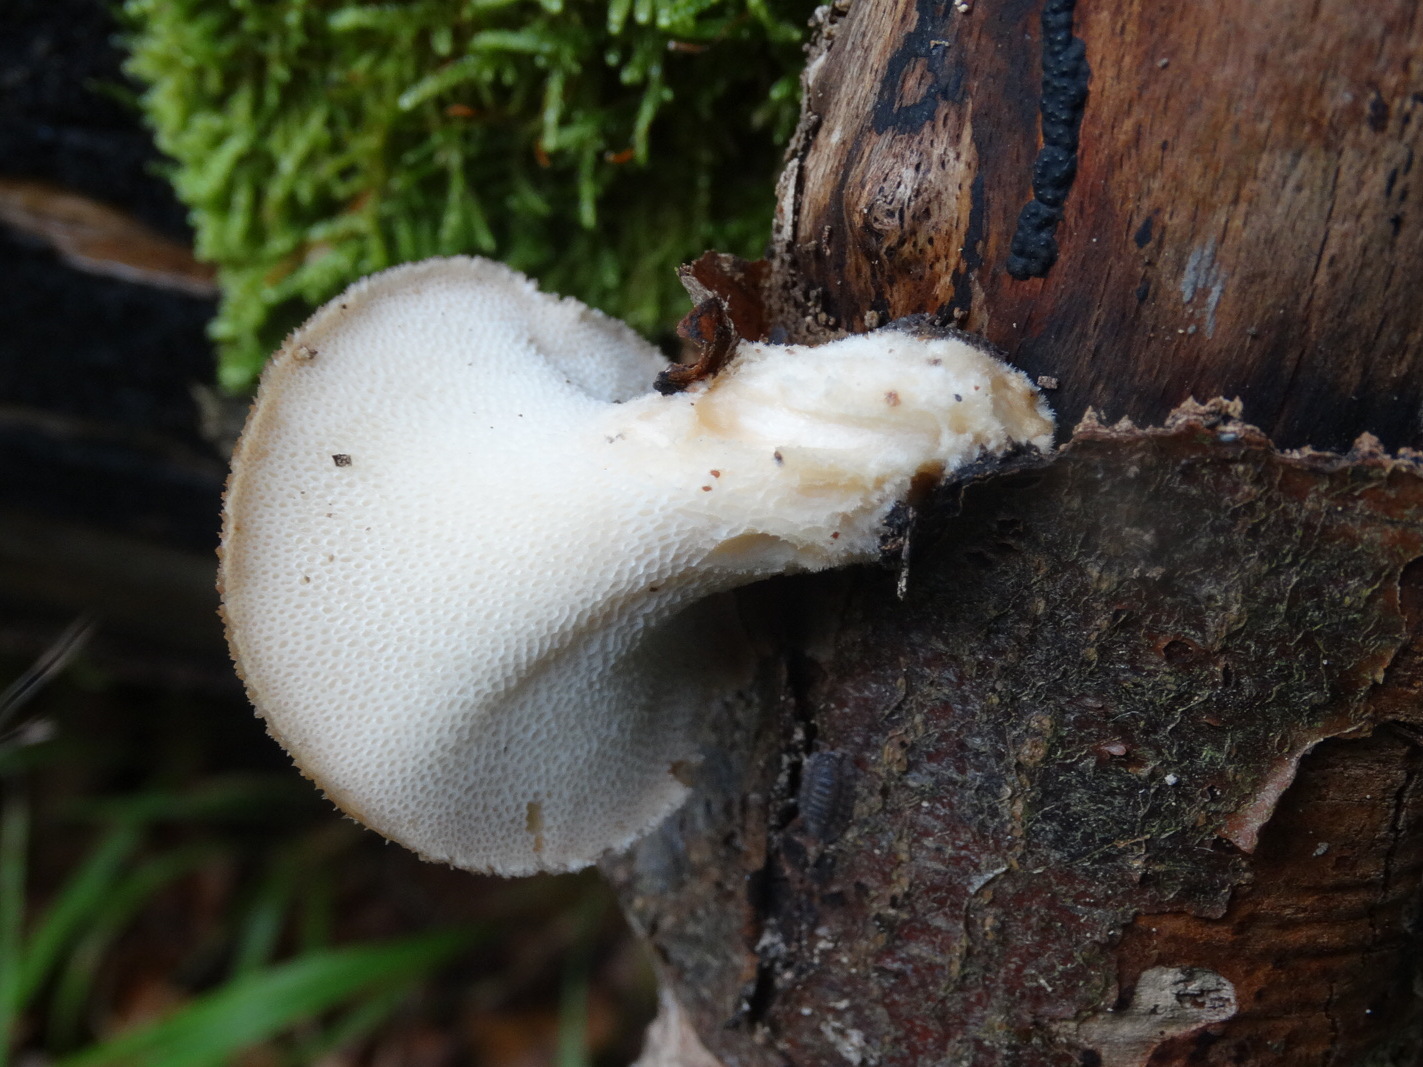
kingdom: Fungi
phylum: Basidiomycota
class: Agaricomycetes
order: Polyporales
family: Polyporaceae
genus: Polyporus
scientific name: Polyporus tuberaster
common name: knoldet stilkporesvamp
